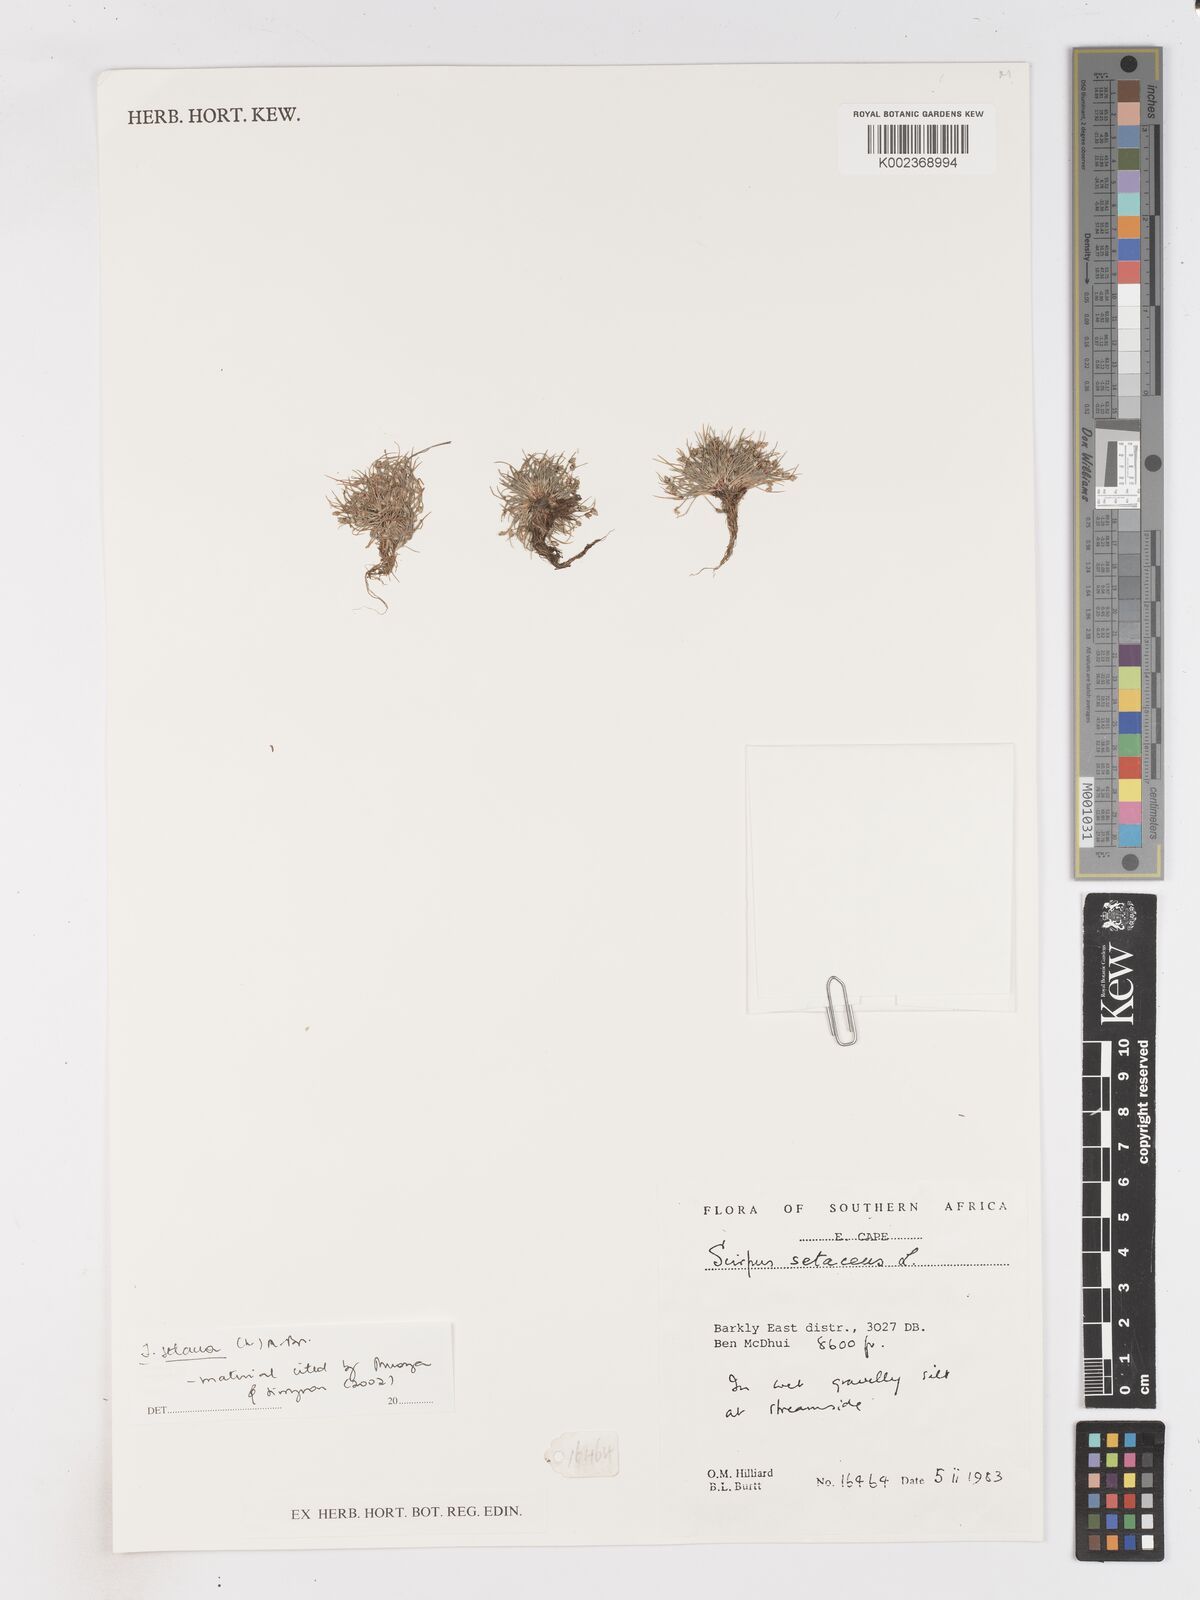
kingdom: Plantae
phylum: Tracheophyta
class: Liliopsida
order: Poales
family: Cyperaceae
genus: Isolepis
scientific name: Isolepis setacea
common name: Bristle club-rush
